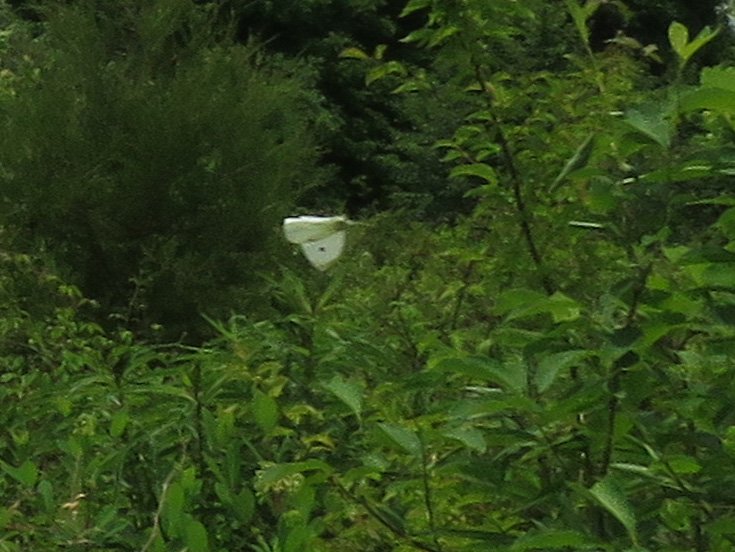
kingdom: Animalia
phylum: Arthropoda
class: Insecta
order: Lepidoptera
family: Pieridae
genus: Pieris
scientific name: Pieris rapae
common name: Cabbage White
